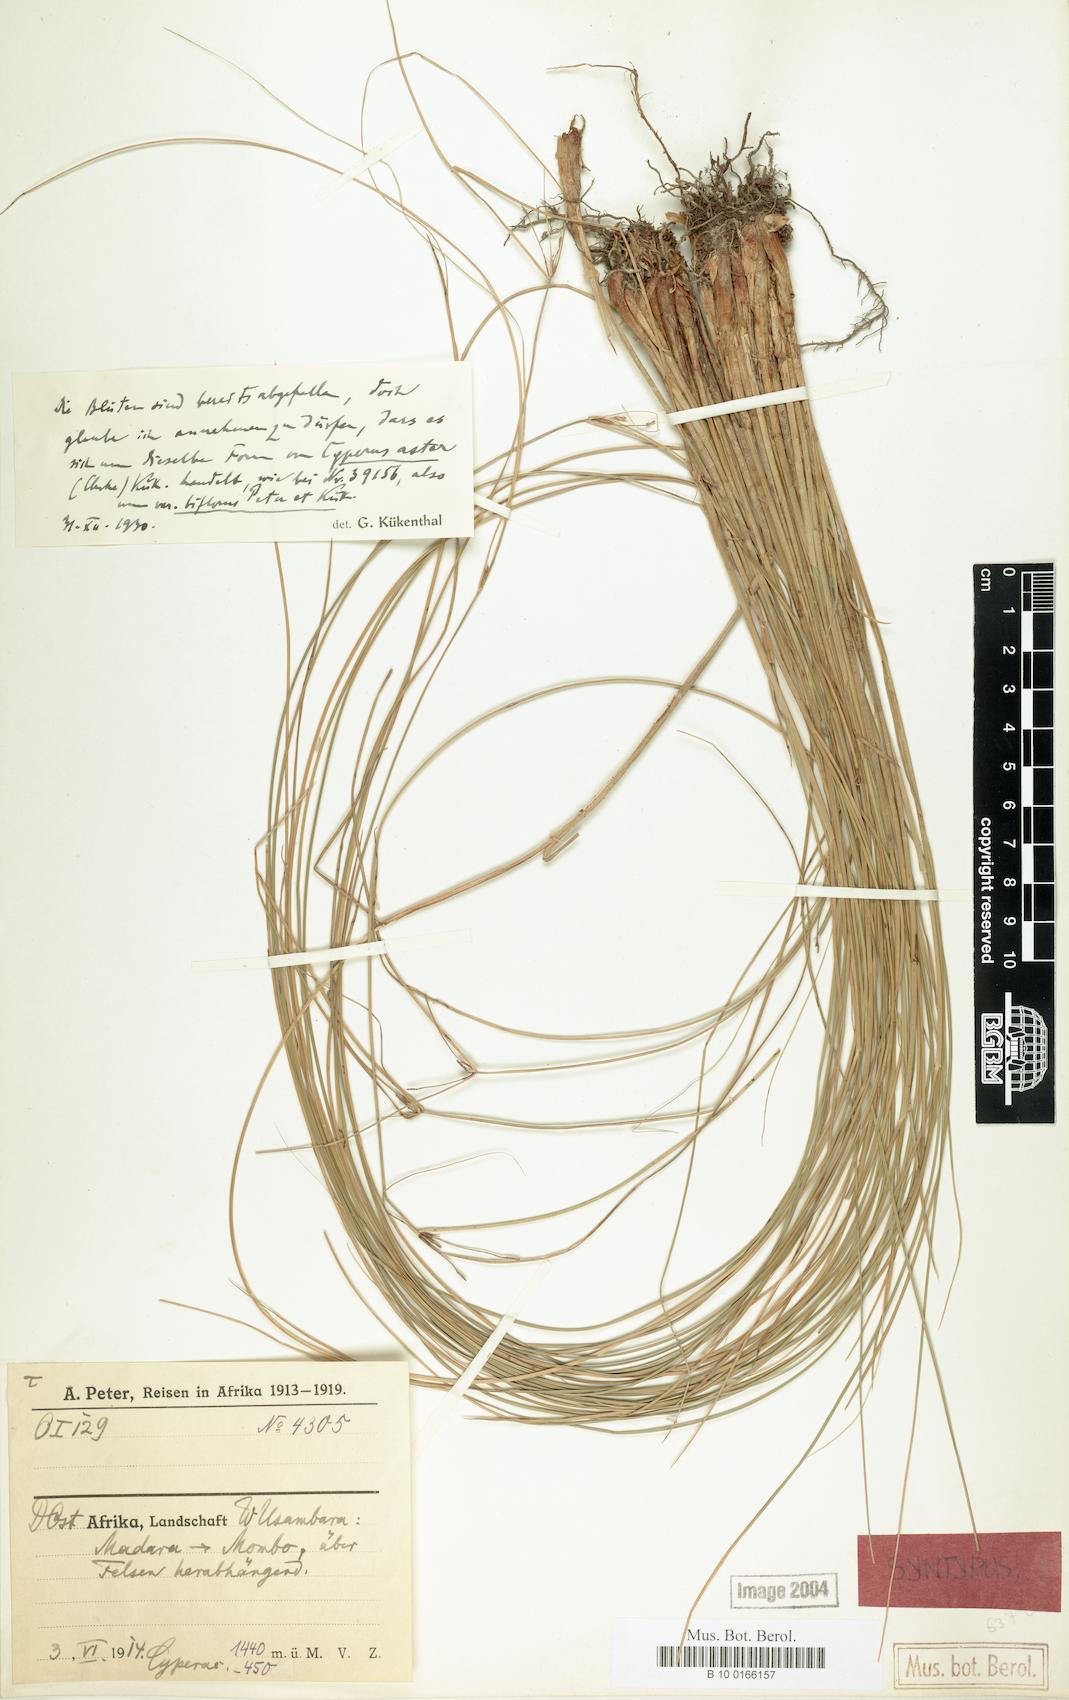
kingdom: Plantae
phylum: Tracheophyta
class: Liliopsida
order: Poales
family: Cyperaceae
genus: Cyperus
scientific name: Cyperus aster
